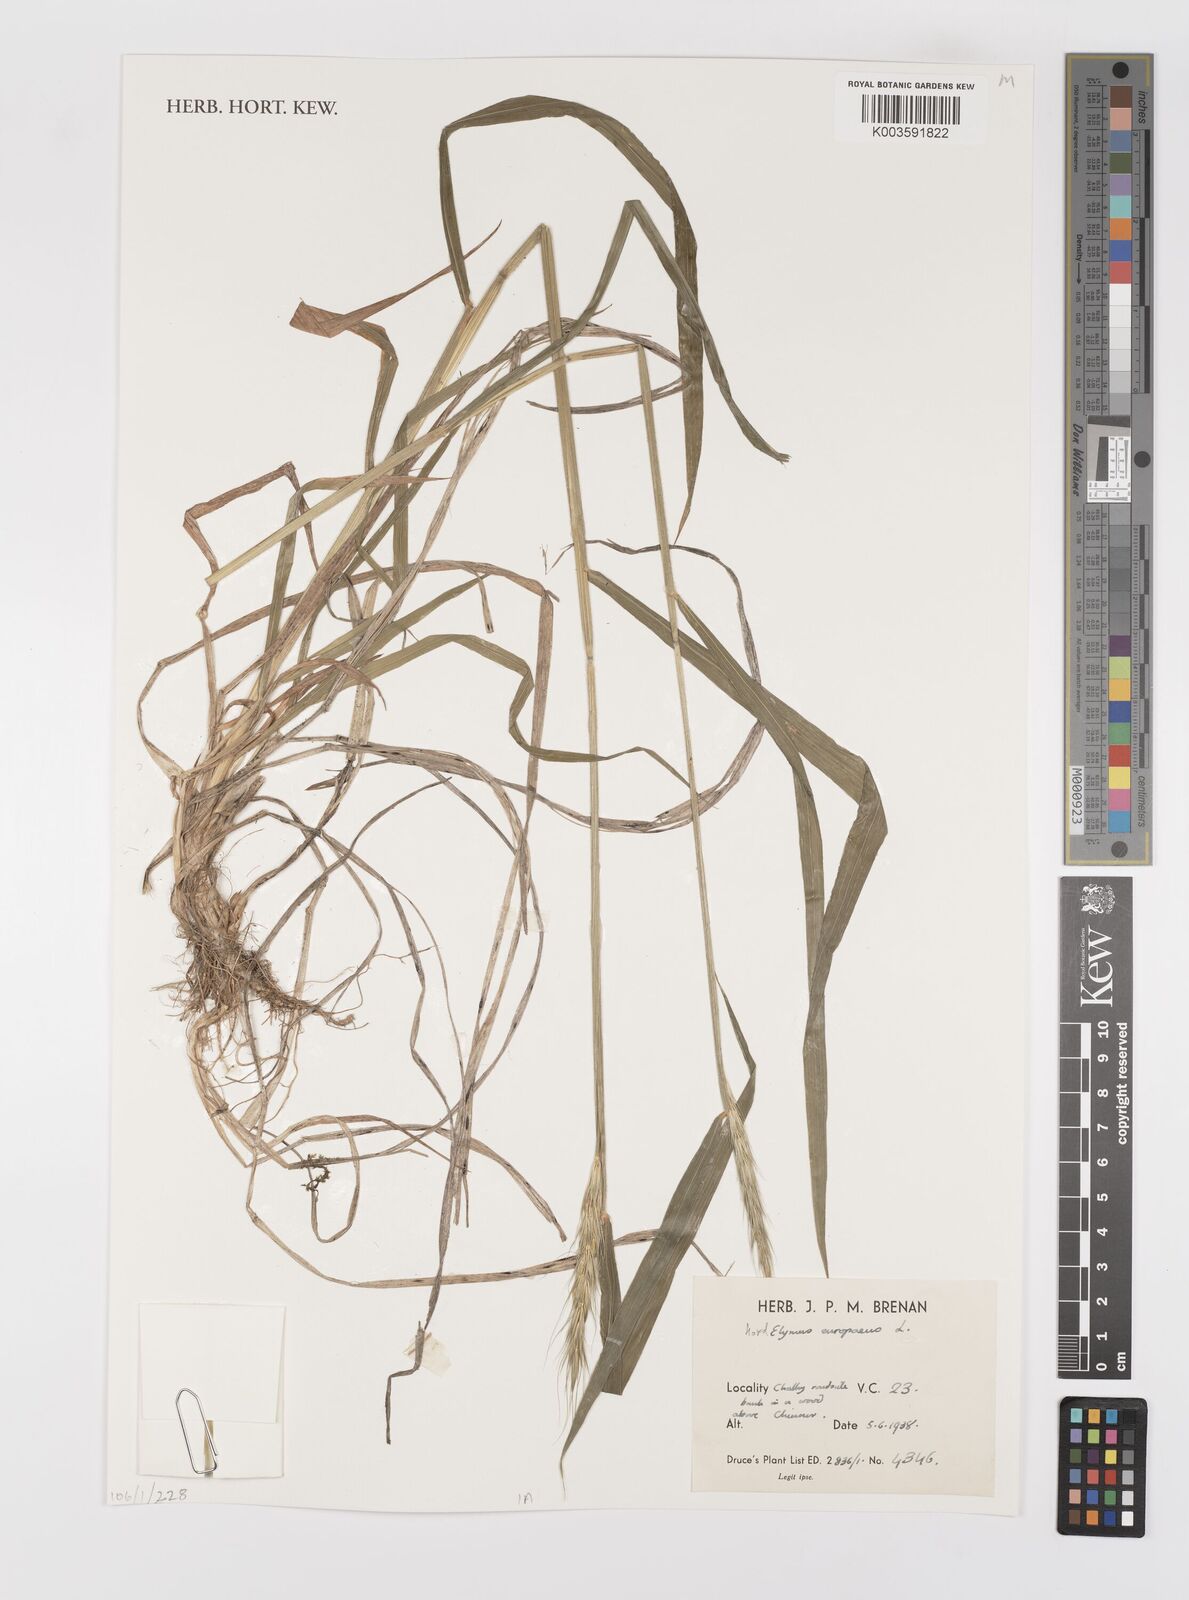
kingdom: Plantae
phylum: Tracheophyta
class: Liliopsida
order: Poales
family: Poaceae
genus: Hordelymus
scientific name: Hordelymus europaeus
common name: Wood-barley
